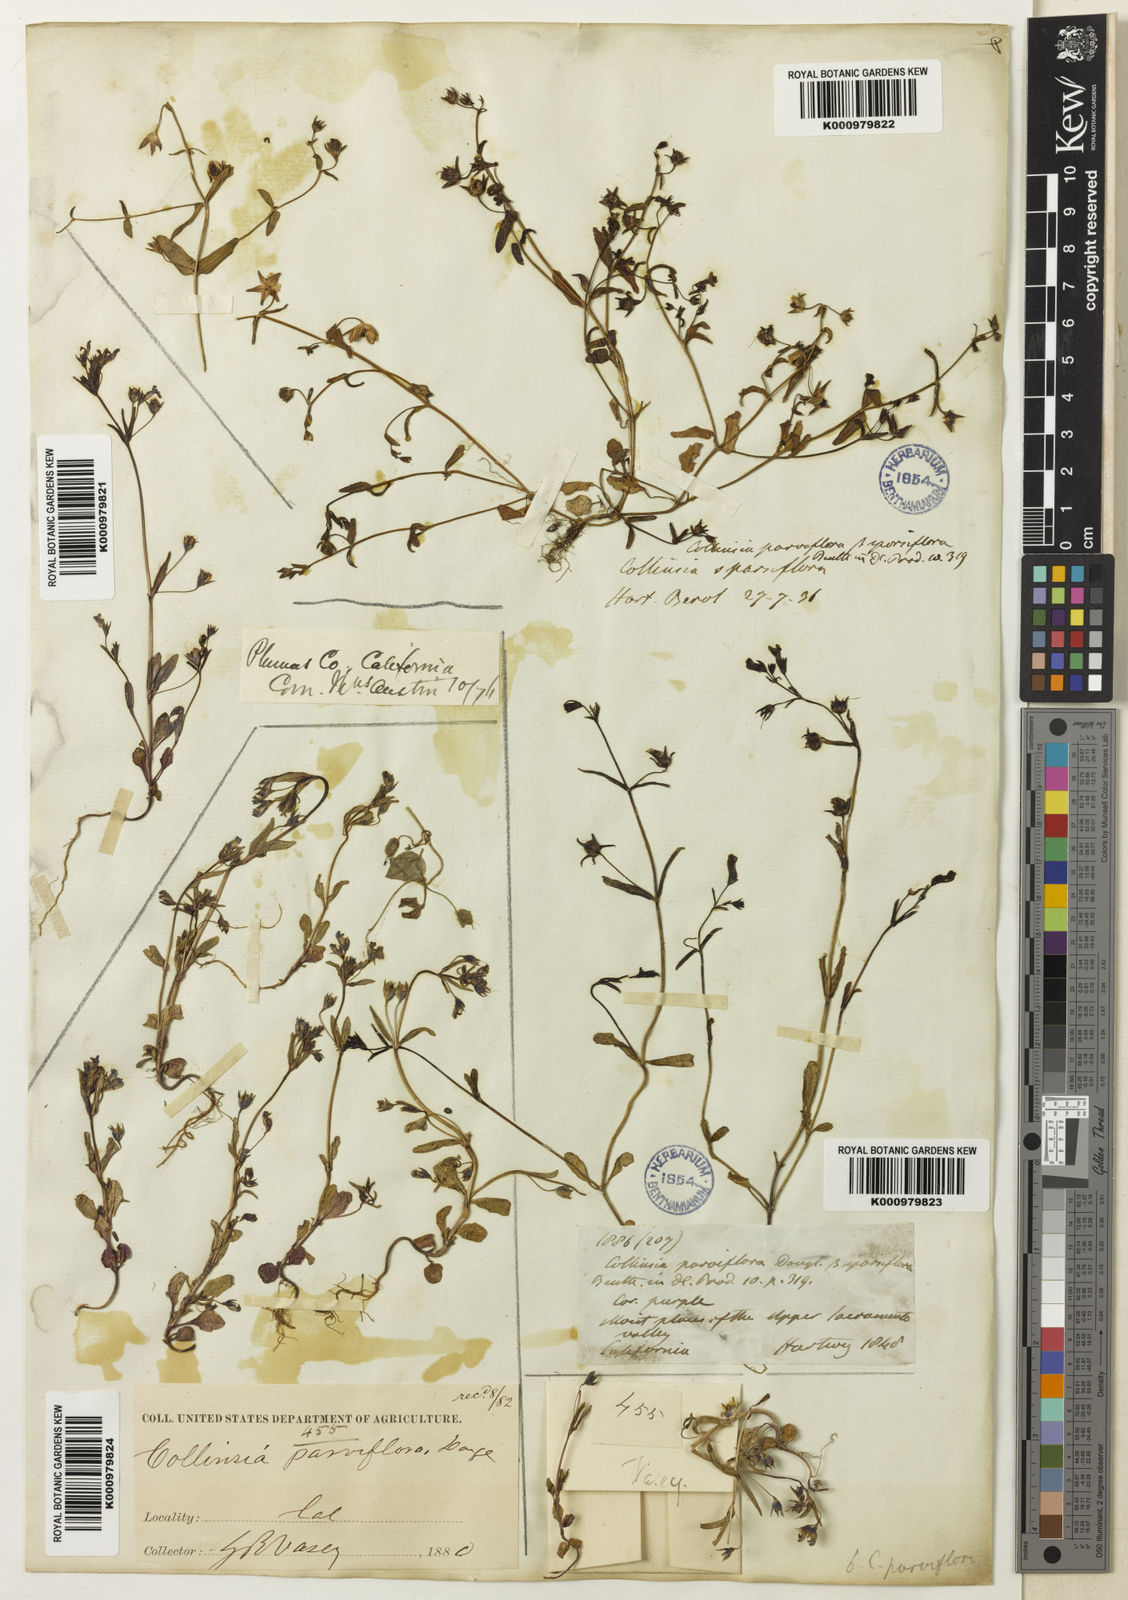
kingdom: Plantae
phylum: Tracheophyta
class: Magnoliopsida
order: Lamiales
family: Plantaginaceae
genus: Collinsia
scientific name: Collinsia sparsiflora
